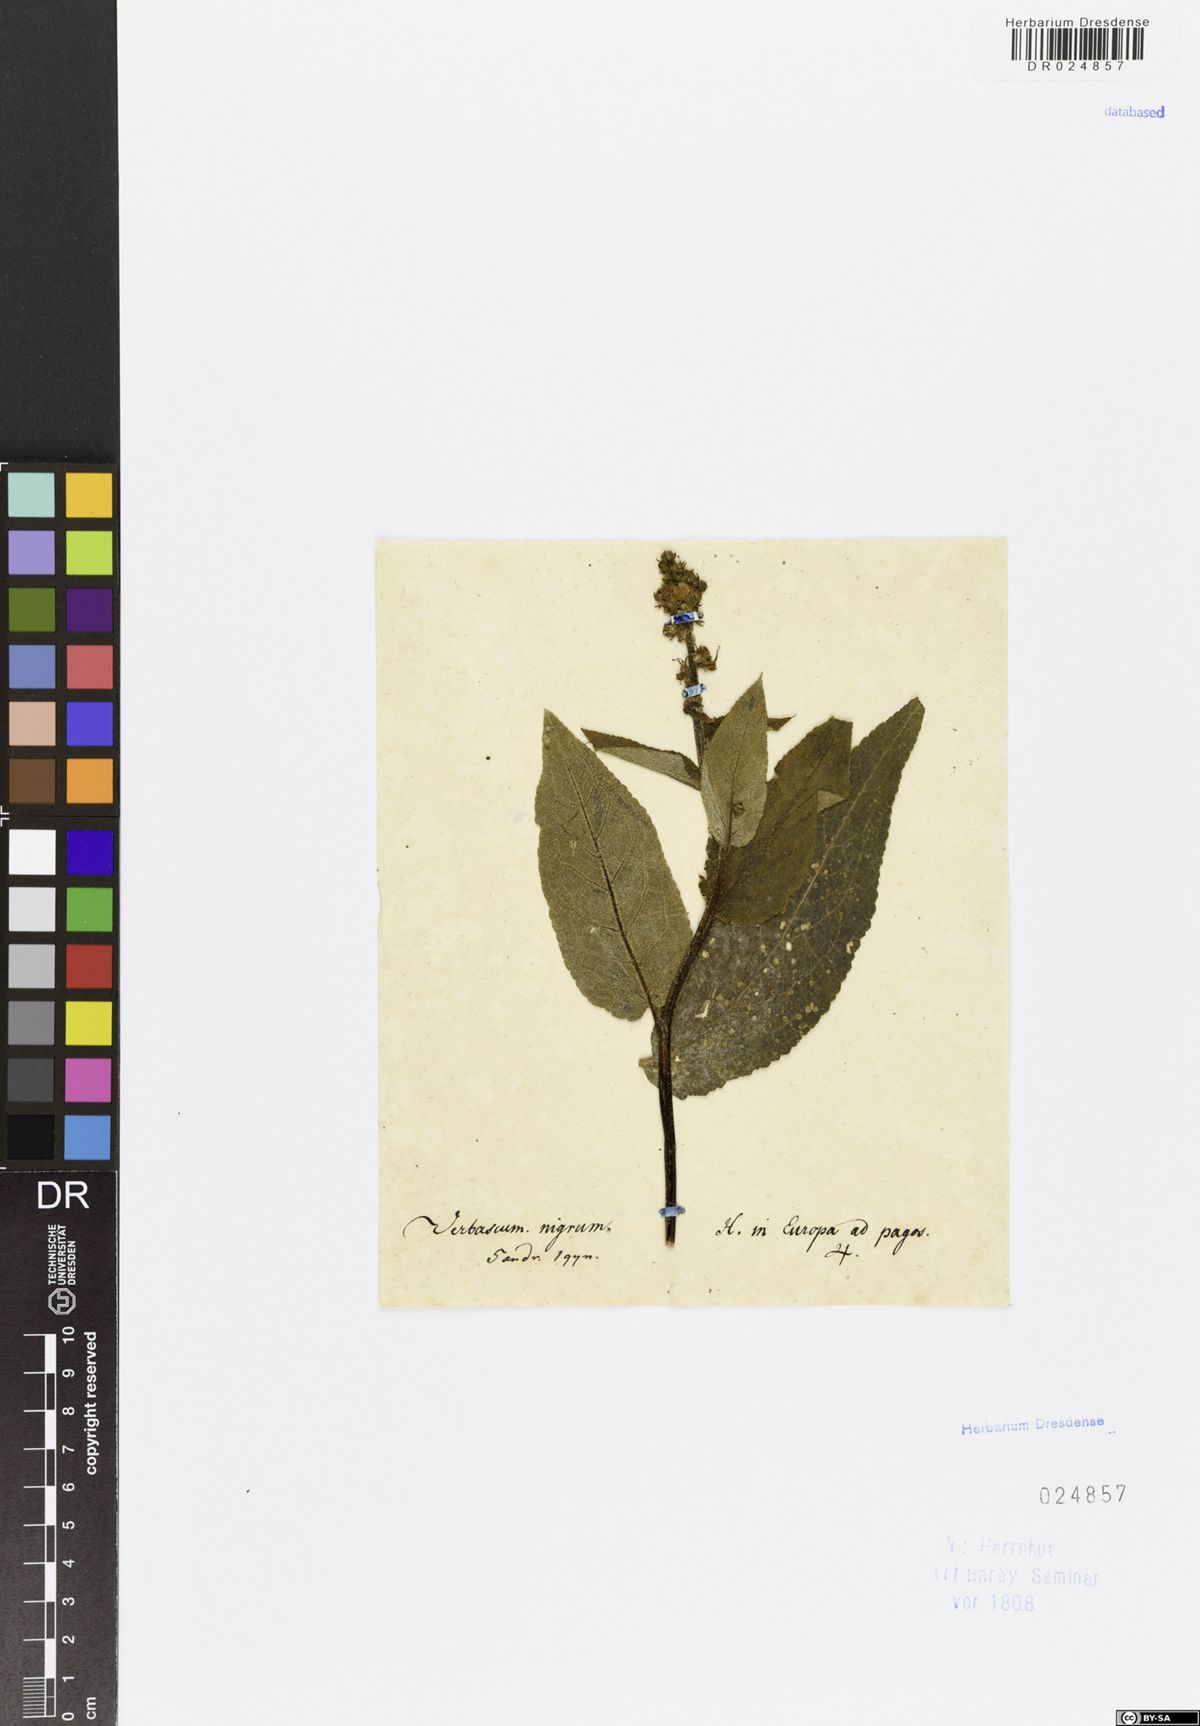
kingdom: Plantae
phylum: Tracheophyta
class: Magnoliopsida
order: Lamiales
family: Scrophulariaceae
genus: Verbascum
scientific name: Verbascum nigrum
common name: Dark mullein
